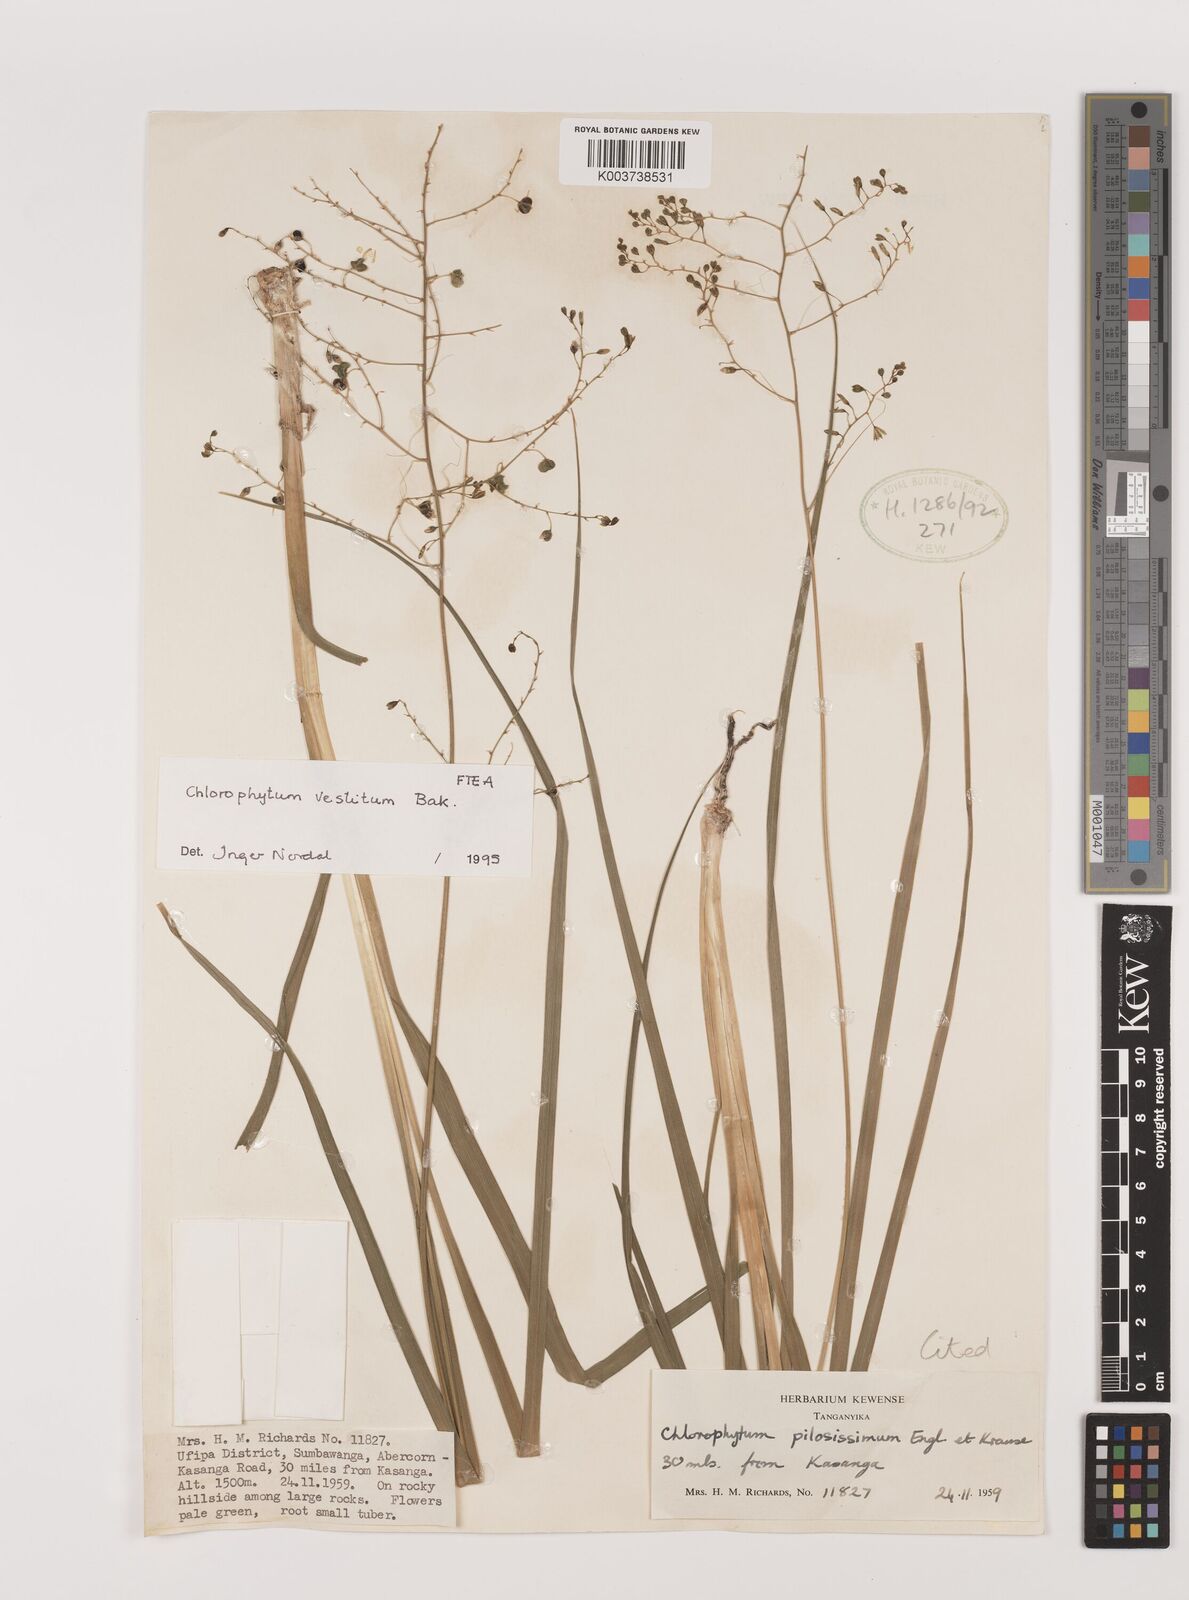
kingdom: Plantae
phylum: Tracheophyta
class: Liliopsida
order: Asparagales
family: Asparagaceae
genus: Chlorophytum
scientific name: Chlorophytum vestitum
